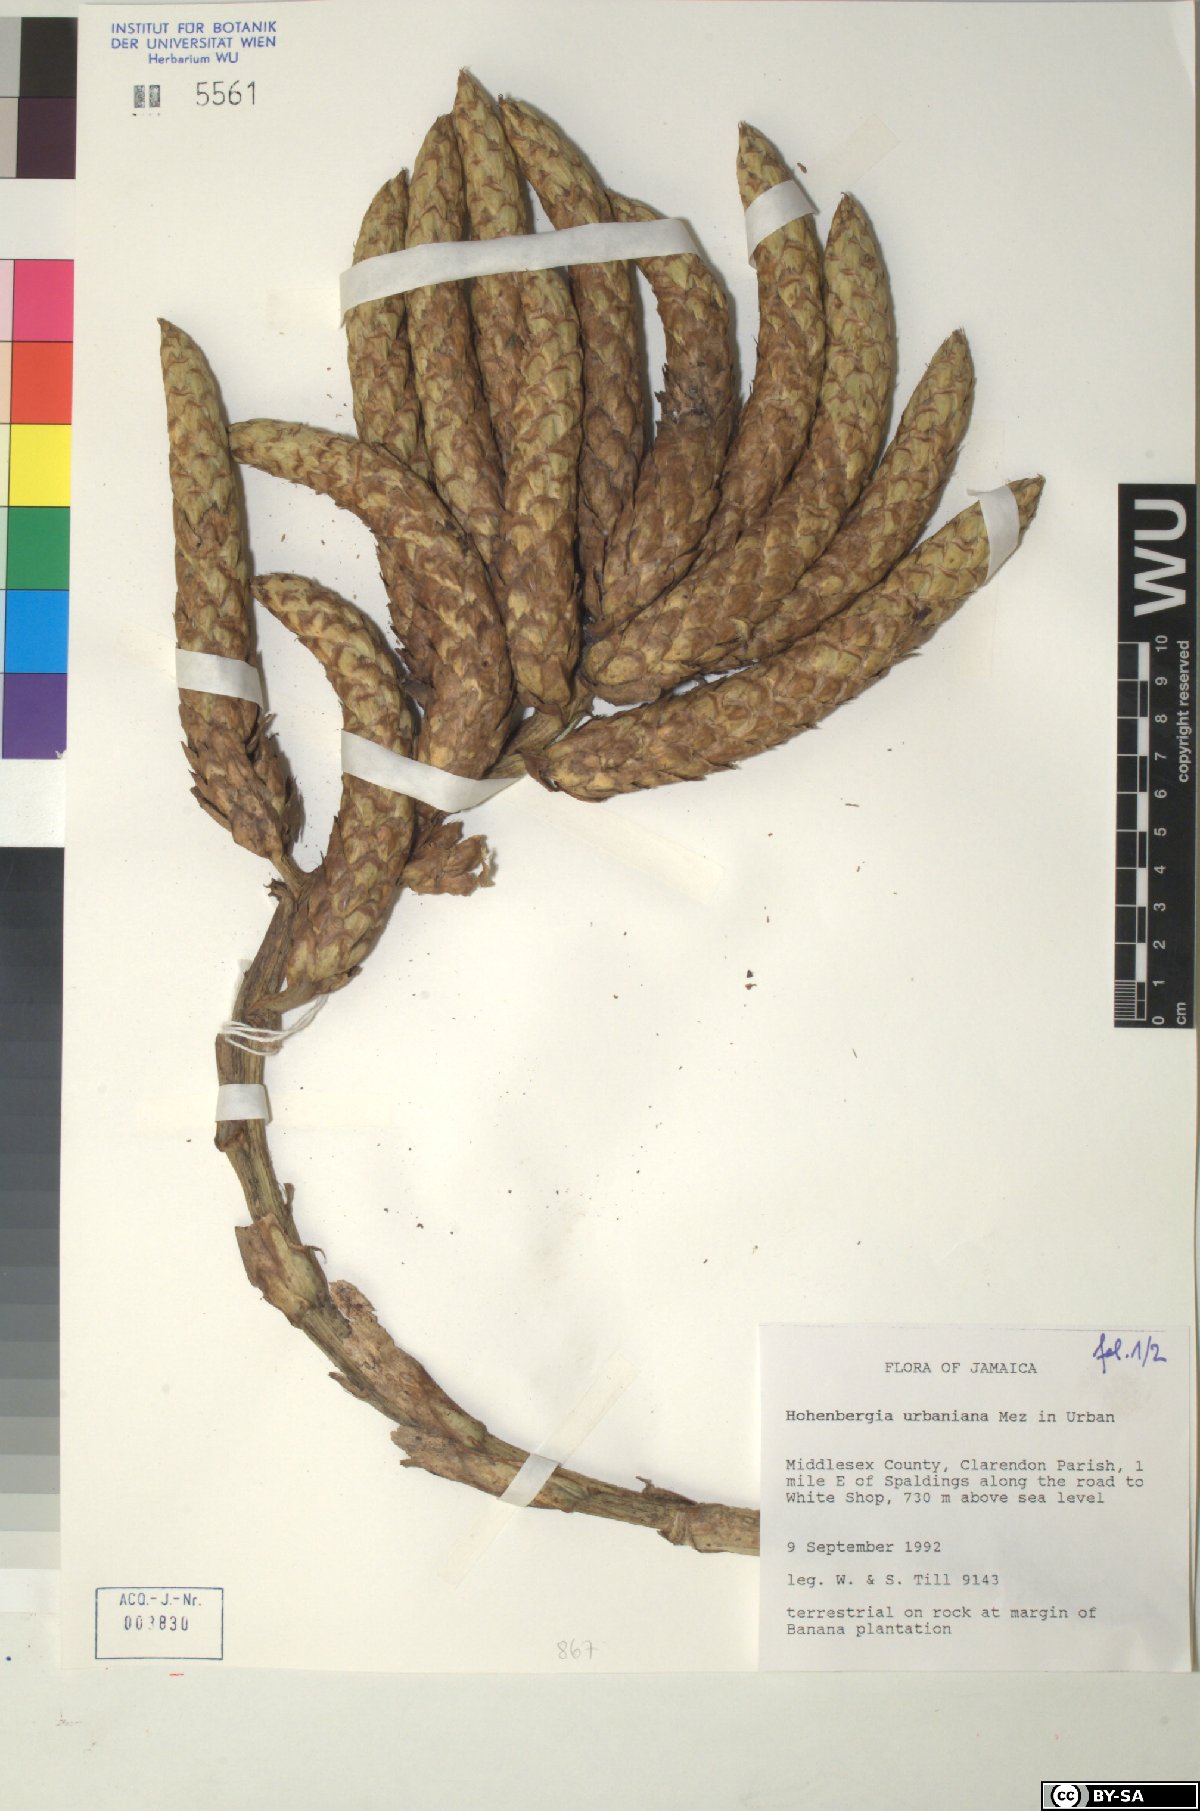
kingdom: Plantae
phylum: Tracheophyta
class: Liliopsida
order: Poales
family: Bromeliaceae
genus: Wittmackia
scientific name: Wittmackia urbaniana
